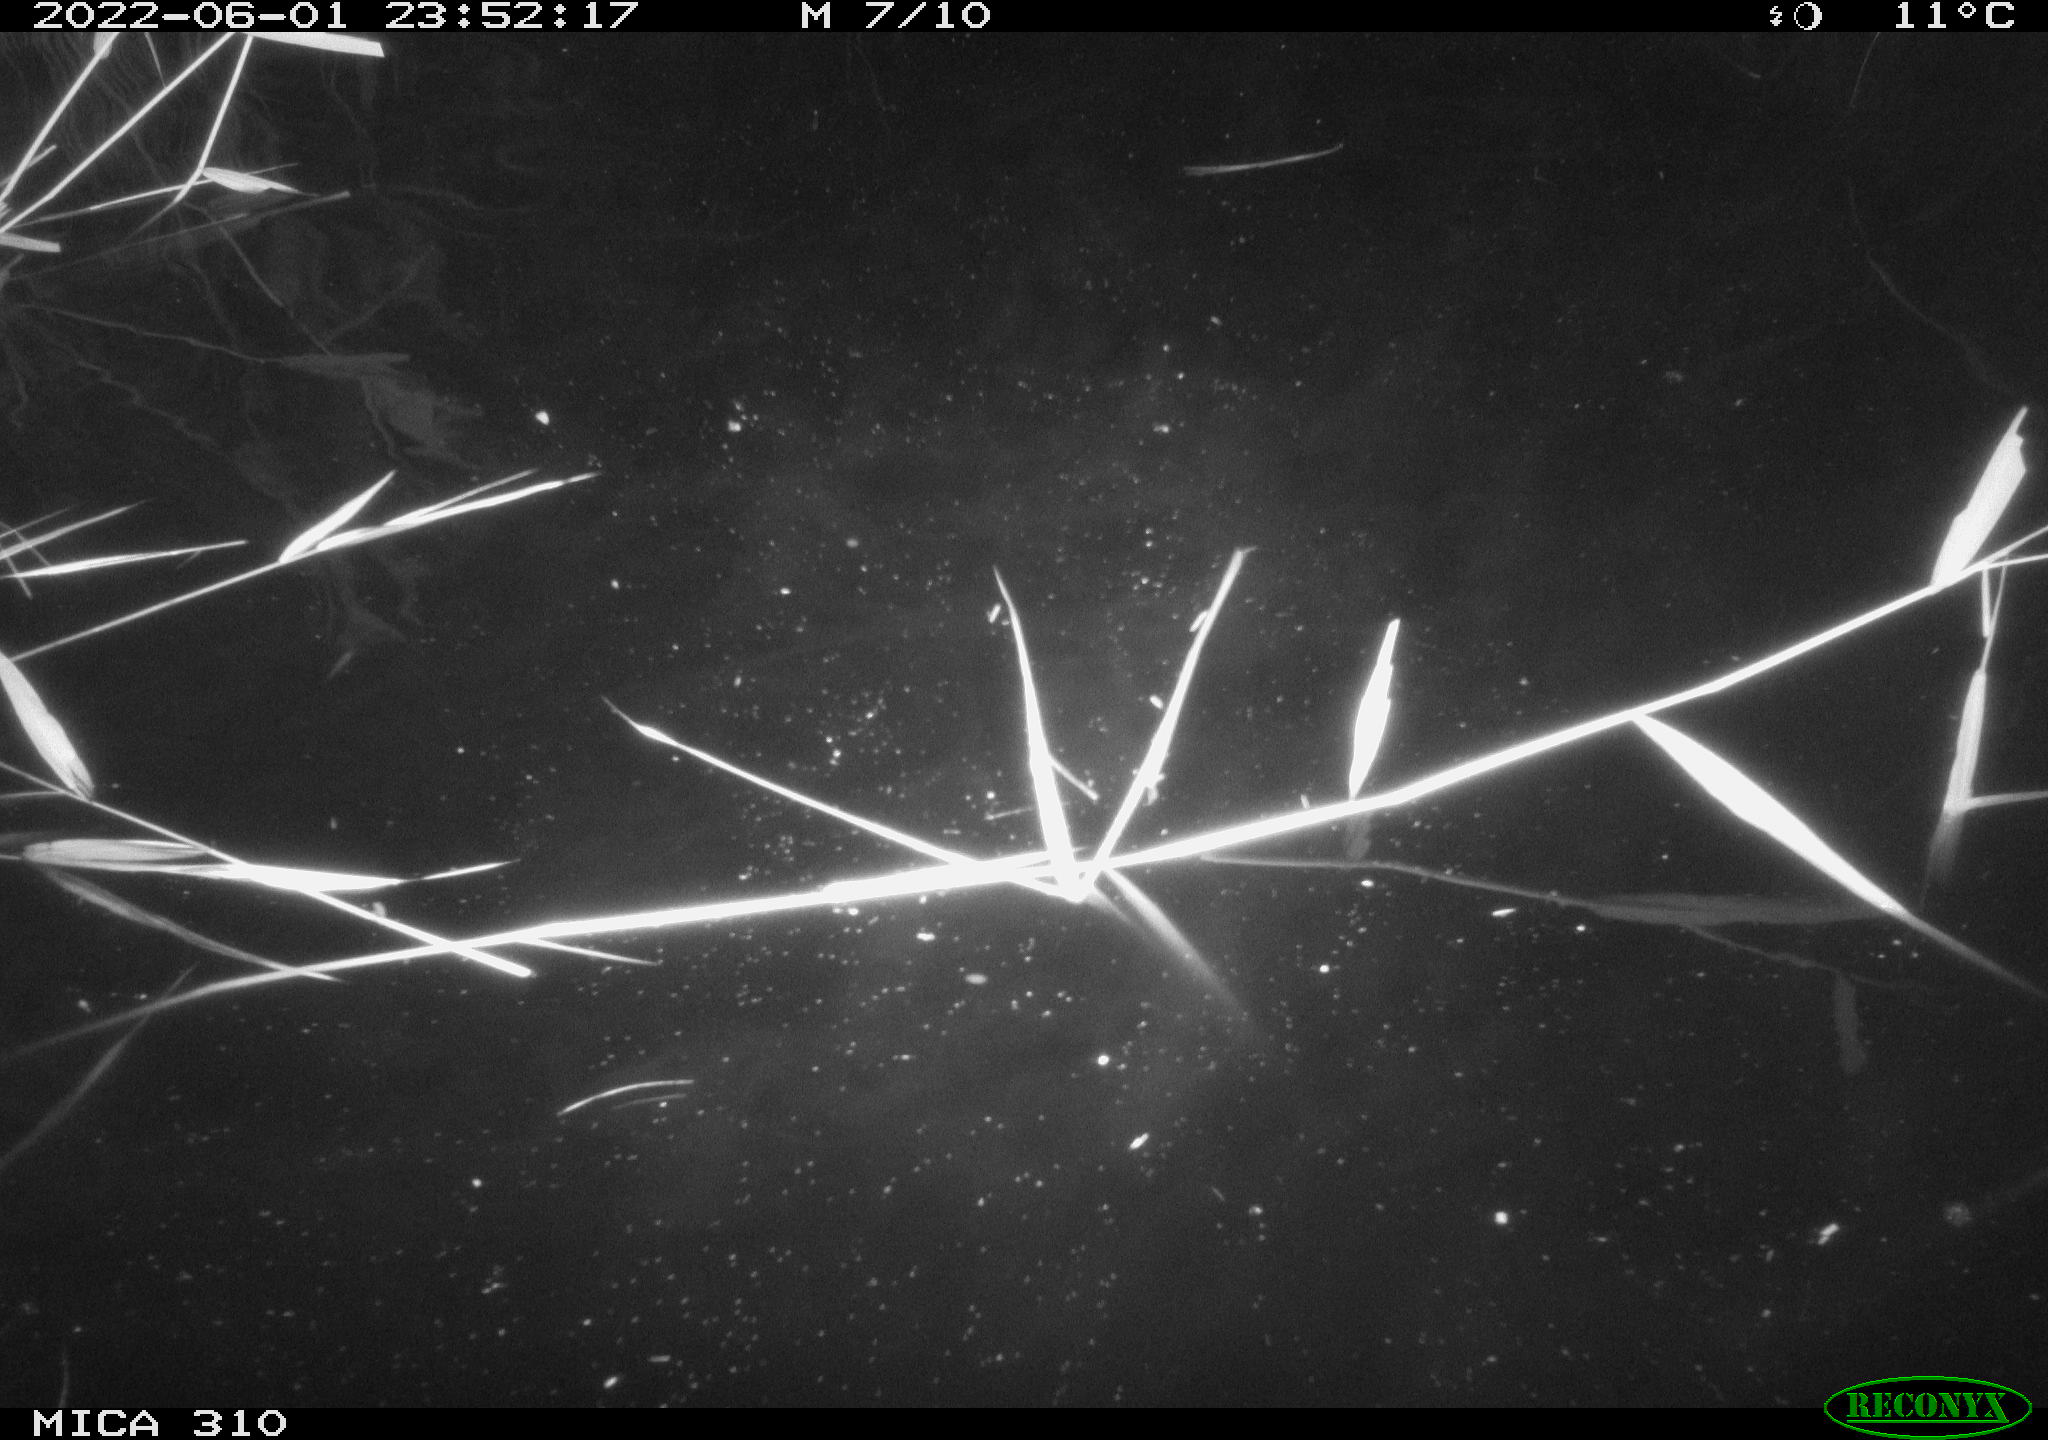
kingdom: Animalia
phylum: Chordata
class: Mammalia
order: Rodentia
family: Cricetidae
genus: Ondatra
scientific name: Ondatra zibethicus
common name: Muskrat
